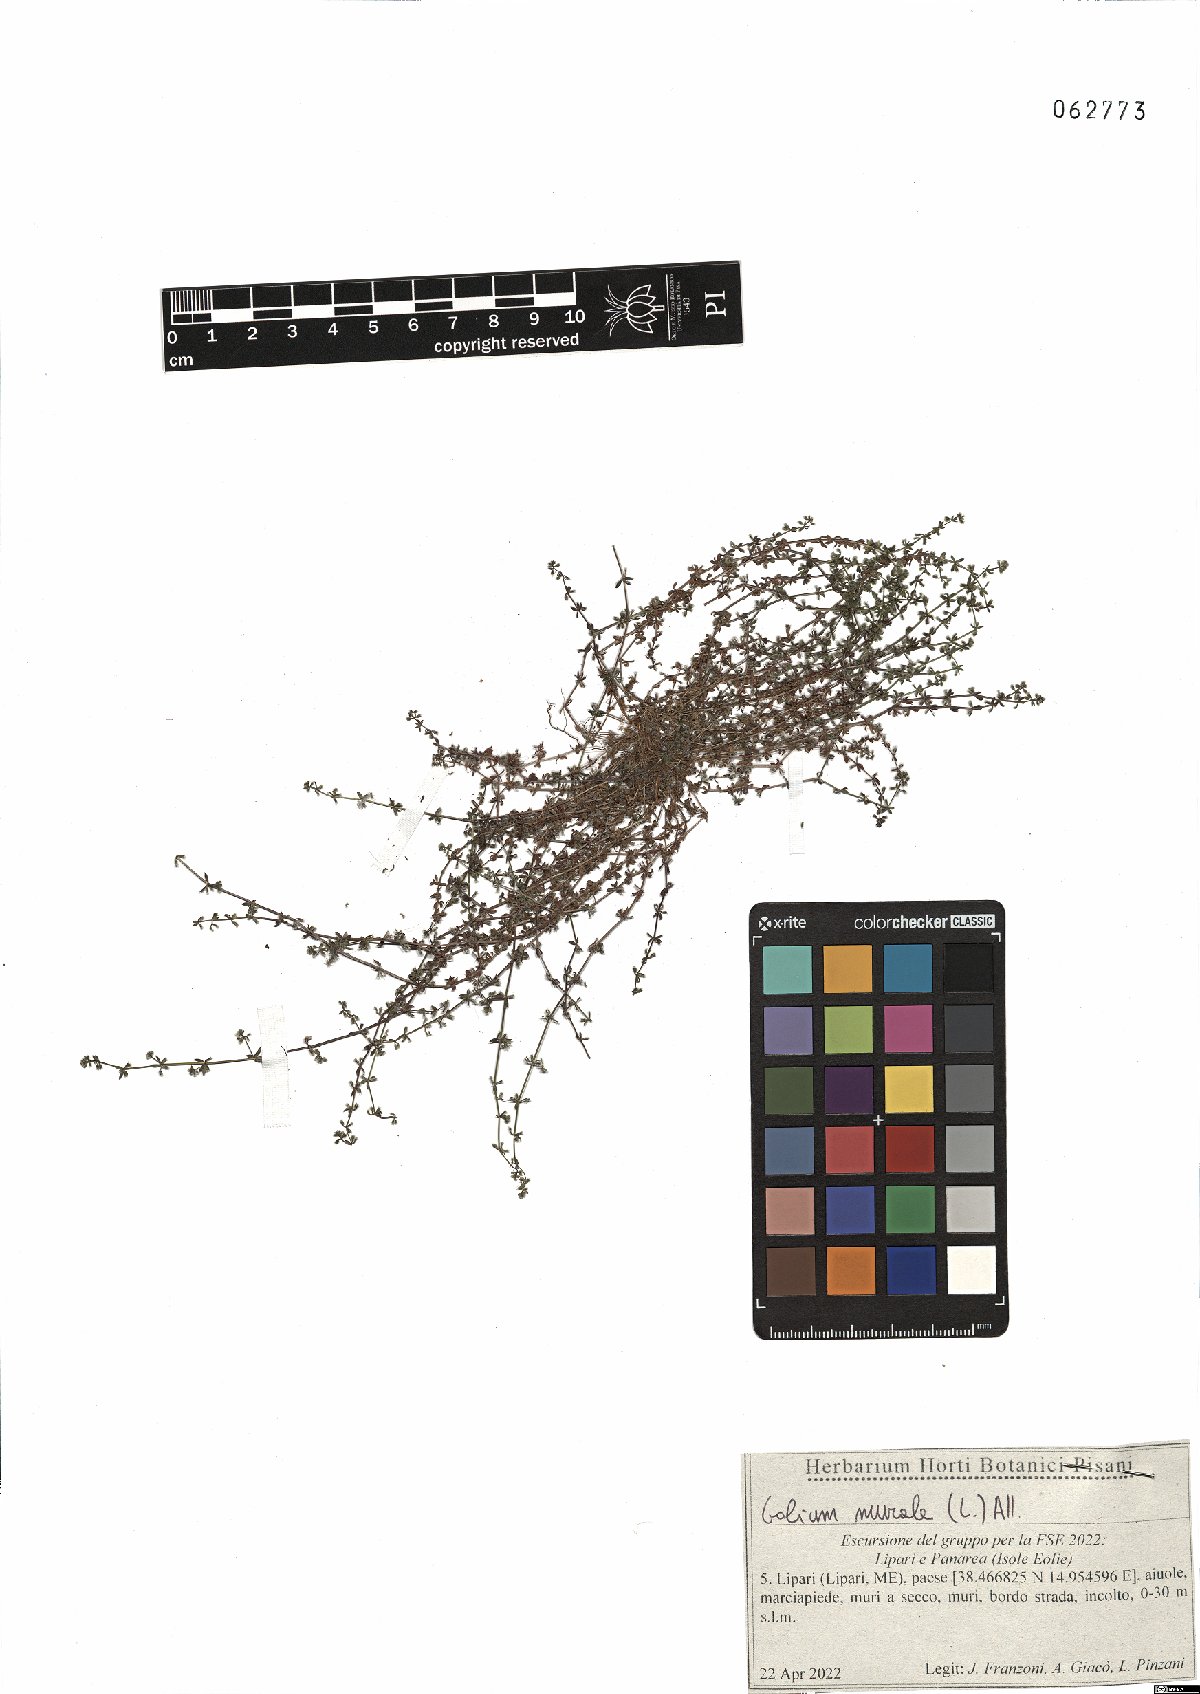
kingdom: Plantae
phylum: Tracheophyta
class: Magnoliopsida
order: Gentianales
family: Rubiaceae
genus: Galium
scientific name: Galium murale
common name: Yellow wall bedstraw
